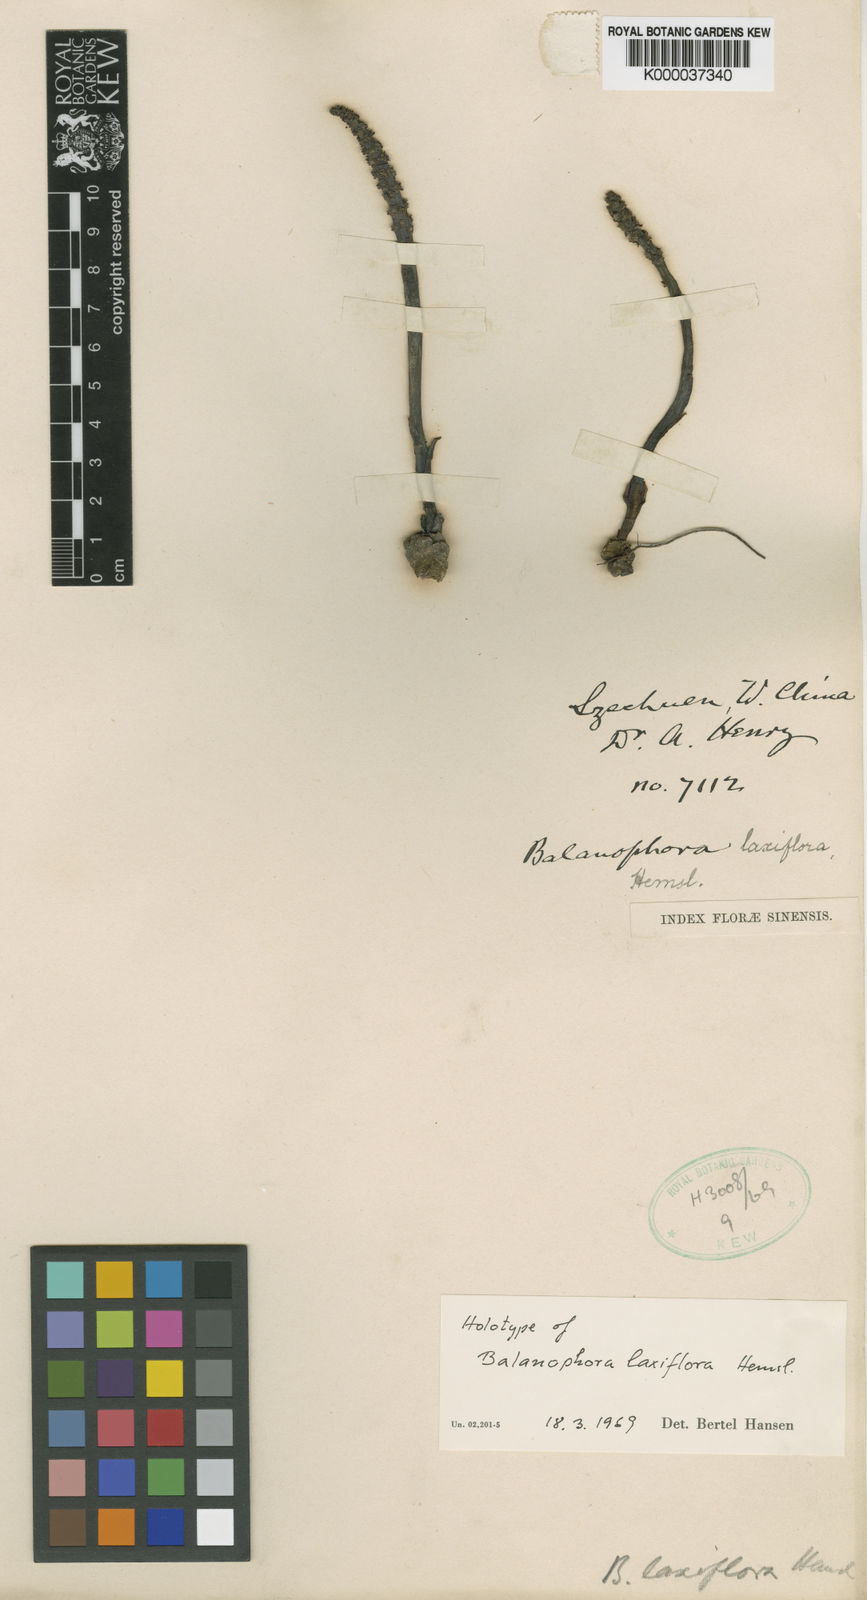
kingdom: Plantae
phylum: Tracheophyta
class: Magnoliopsida
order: Santalales
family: Balanophoraceae
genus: Balanophora
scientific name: Balanophora laxiflora
